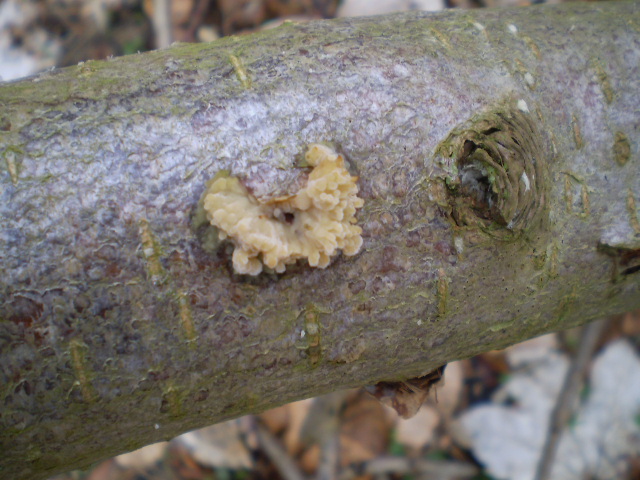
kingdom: Fungi
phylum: Basidiomycota
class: Agaricomycetes
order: Hymenochaetales
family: Rickenellaceae
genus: Peniophorella
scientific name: Peniophorella pubera
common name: dunet kalkskind
